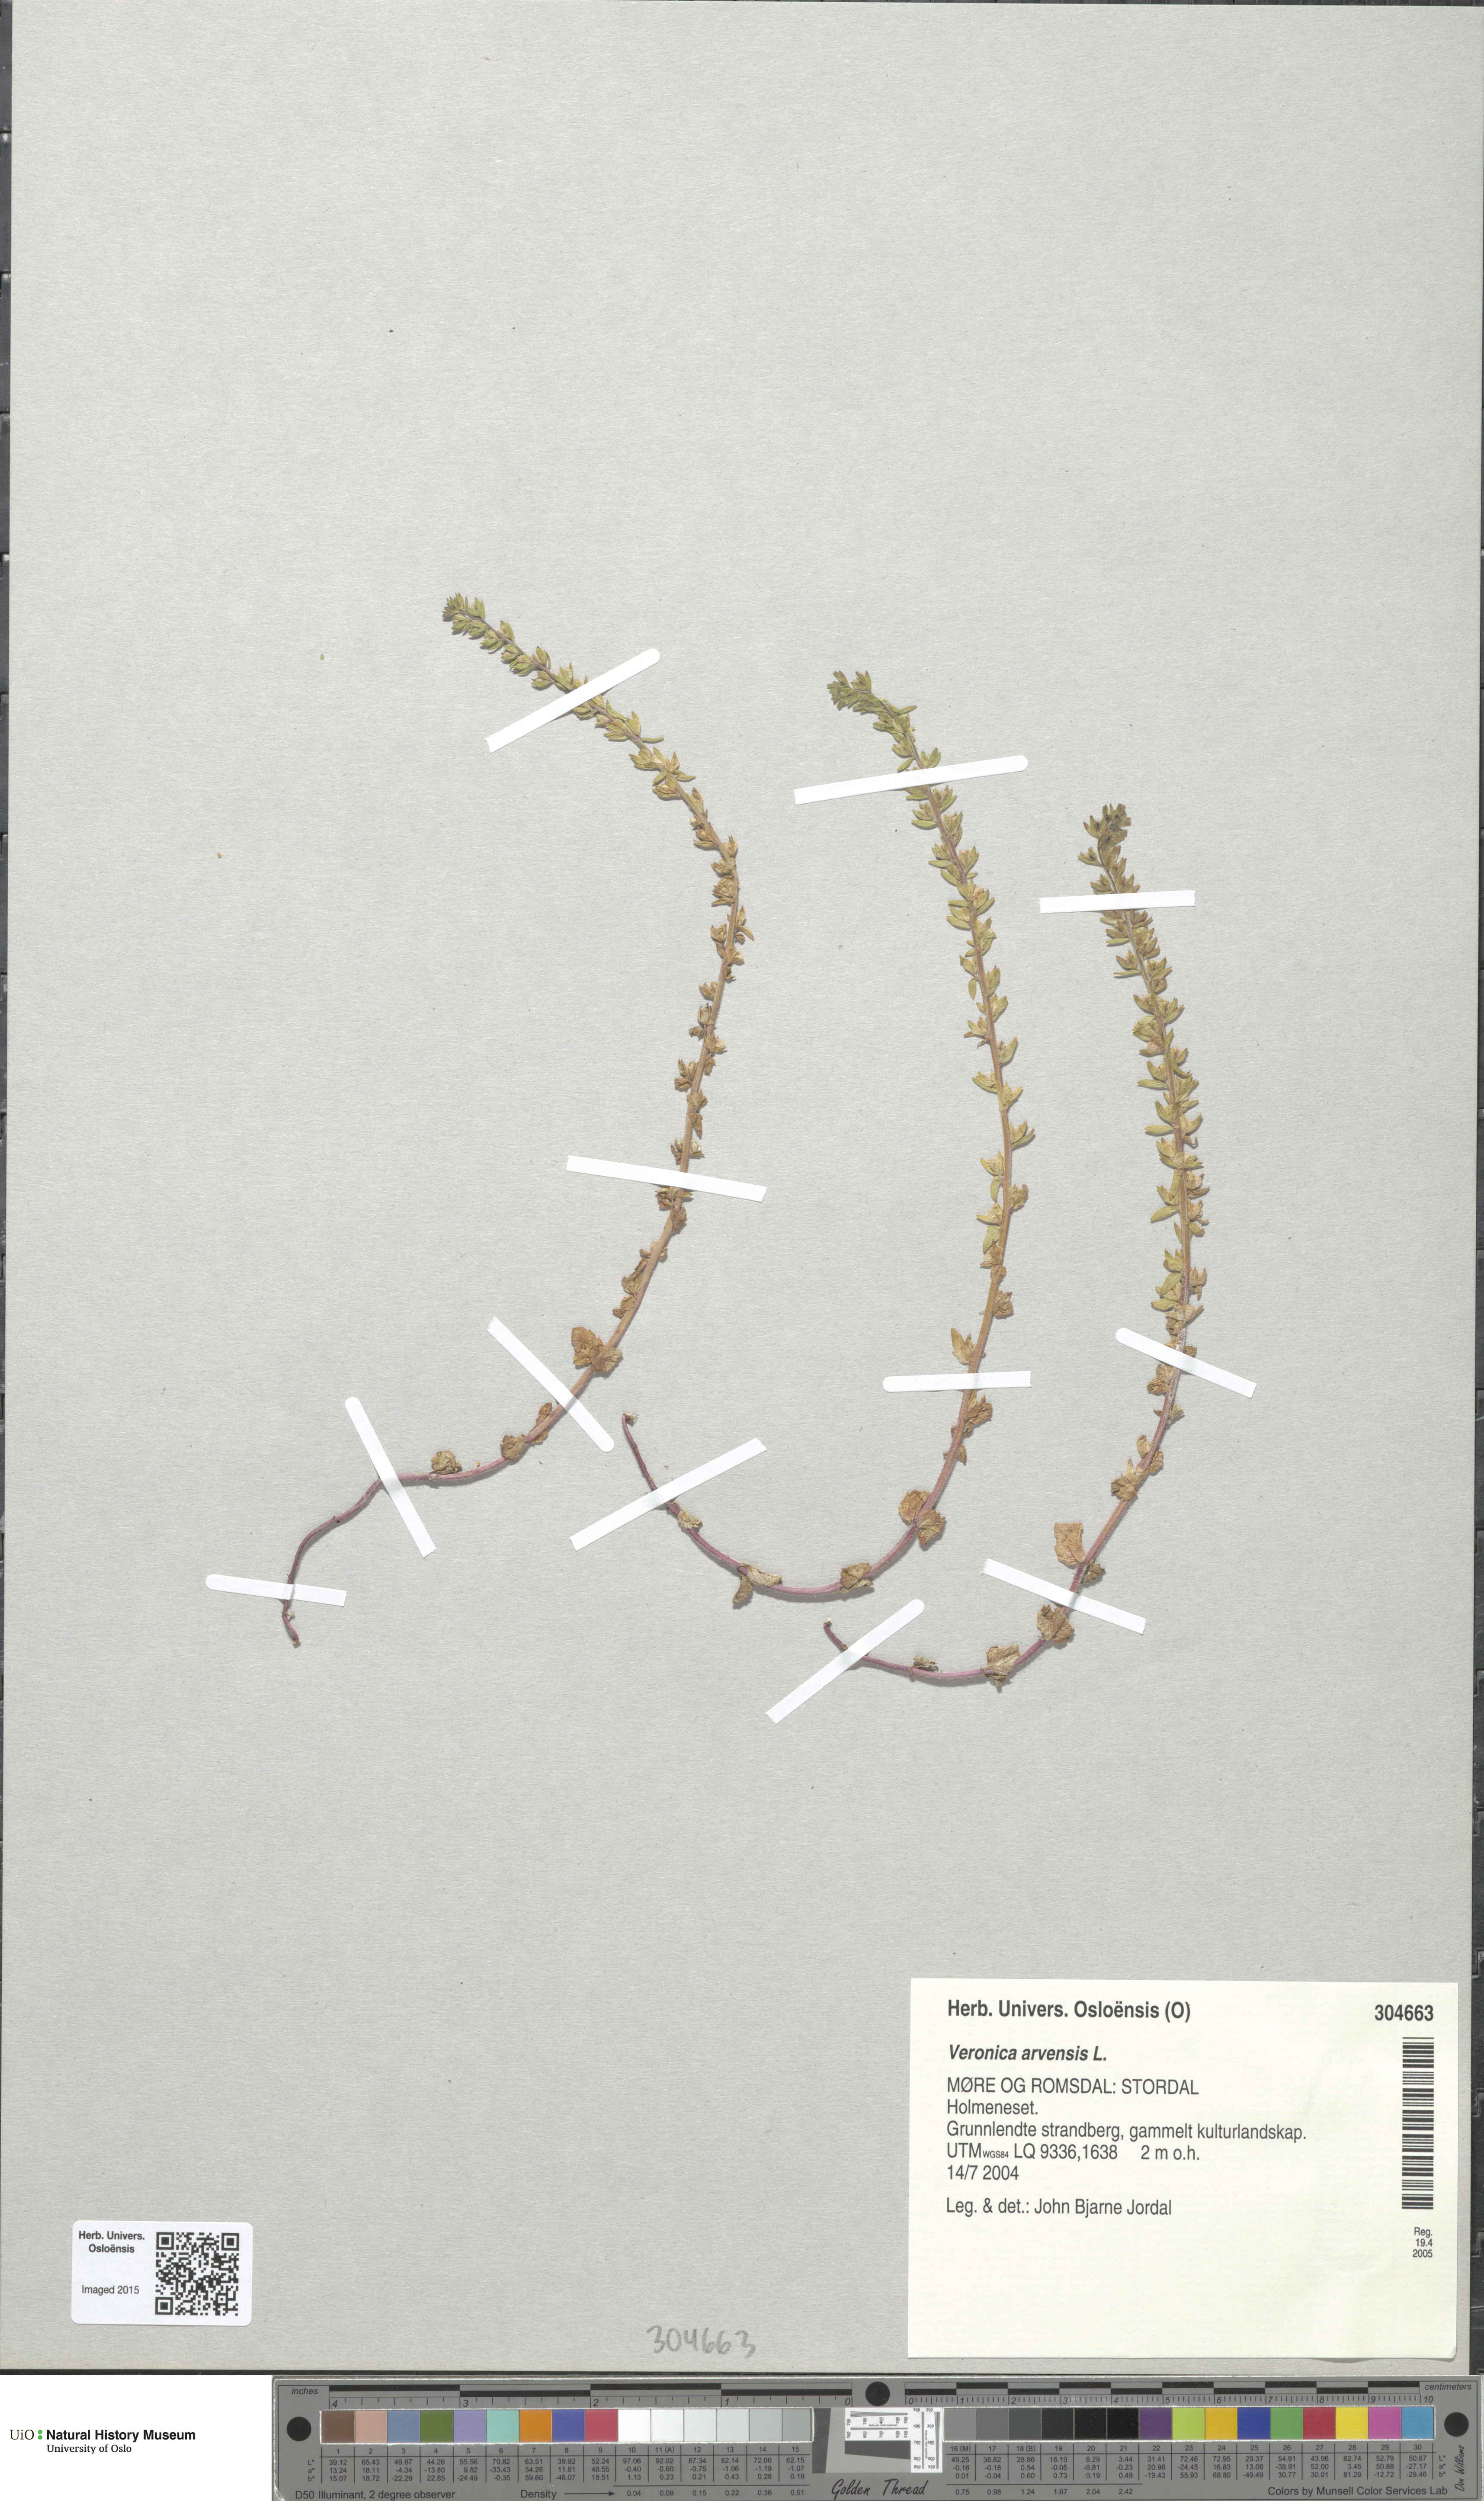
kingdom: Plantae
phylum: Tracheophyta
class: Magnoliopsida
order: Lamiales
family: Plantaginaceae
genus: Veronica
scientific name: Veronica arvensis
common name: Corn speedwell
